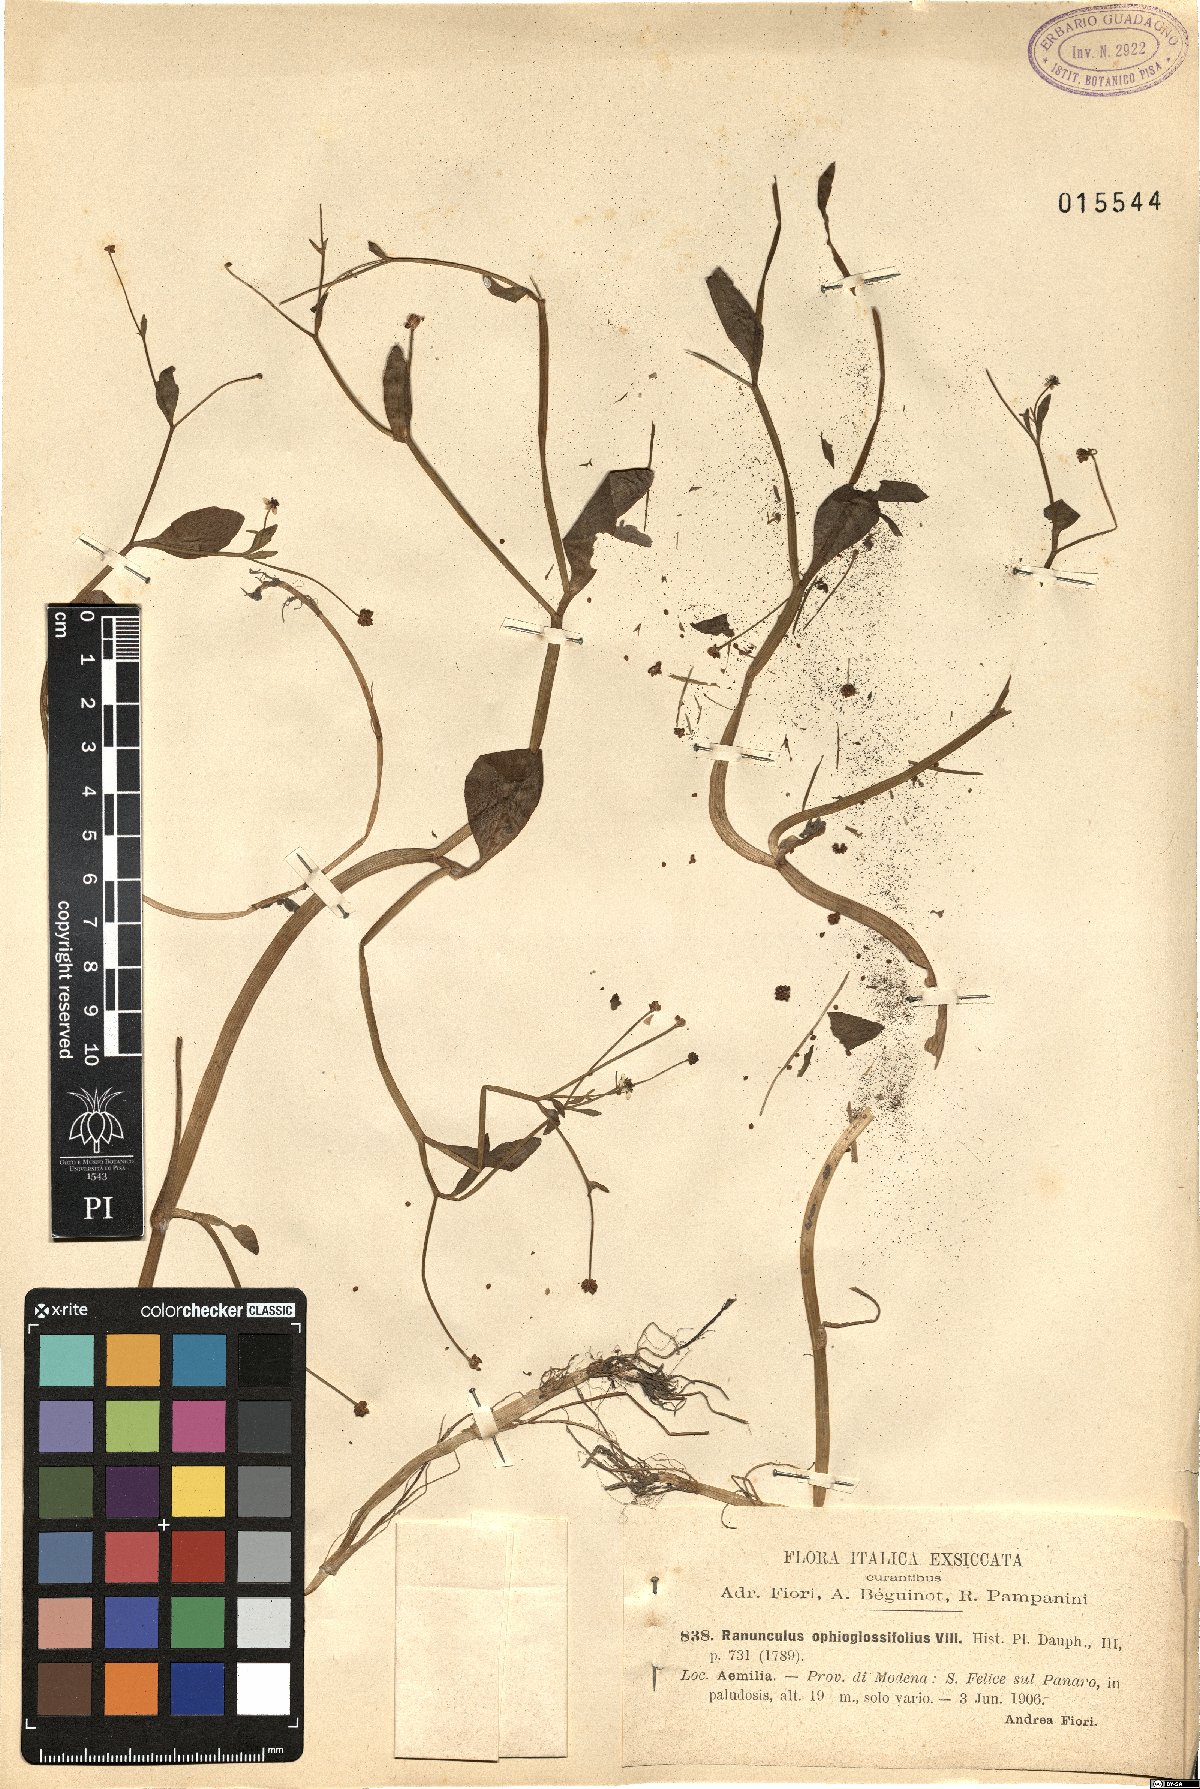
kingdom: Plantae
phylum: Tracheophyta
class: Magnoliopsida
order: Ranunculales
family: Ranunculaceae
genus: Ranunculus
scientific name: Ranunculus ophioglossifolius
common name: Adder's-tongue spearwort
